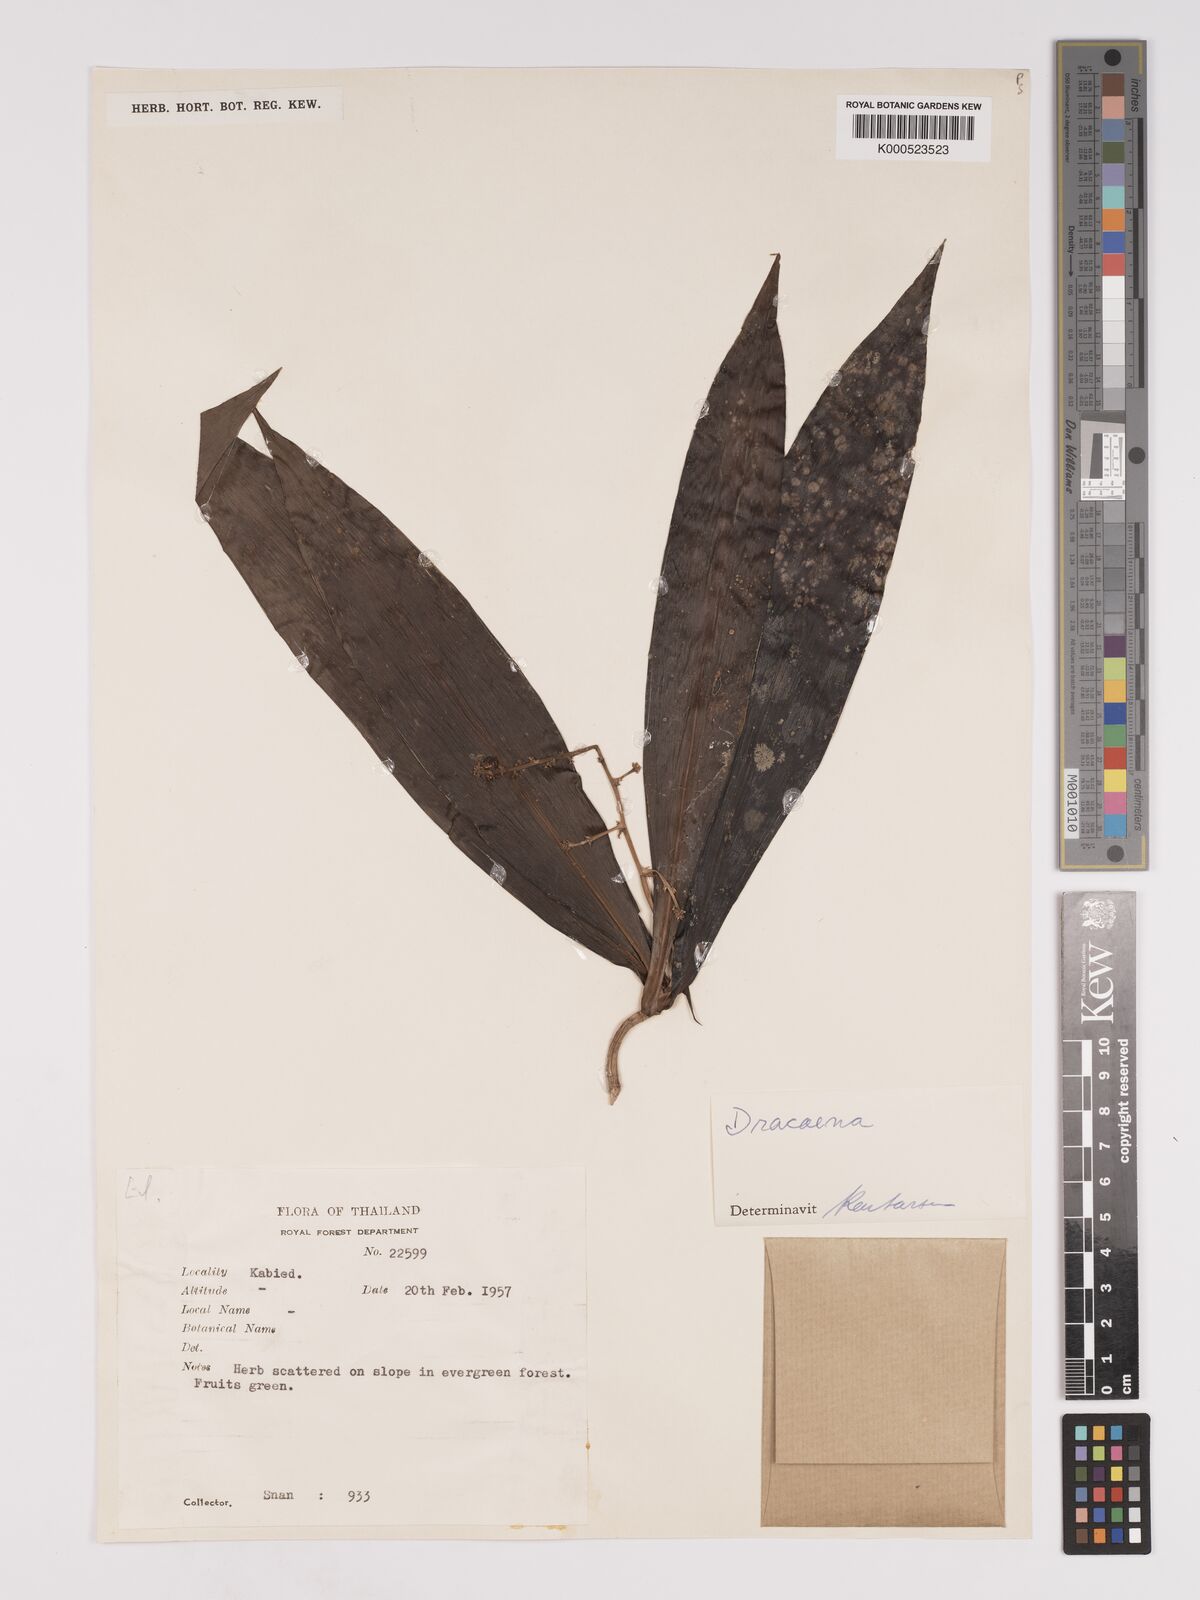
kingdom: Plantae
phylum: Tracheophyta
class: Liliopsida
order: Asparagales
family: Asparagaceae
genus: Dracaena
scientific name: Dracaena
